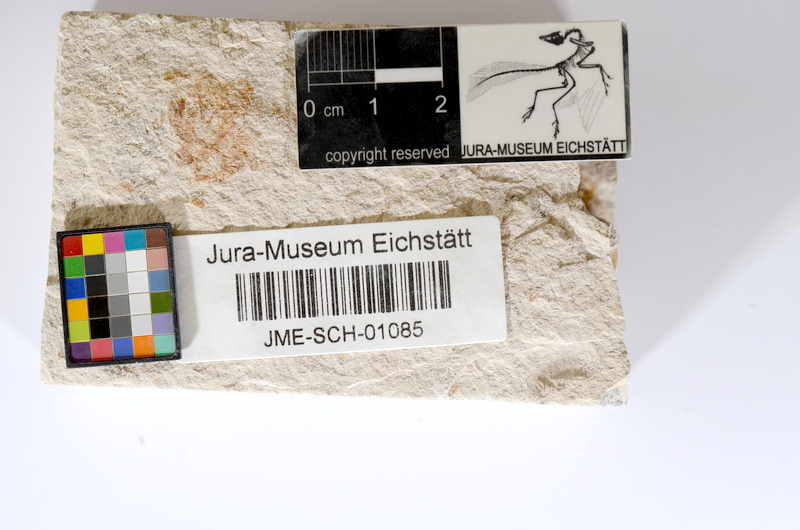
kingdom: Animalia
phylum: Chordata
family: Ascalaboidae
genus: Tharsis
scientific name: Tharsis dubius
